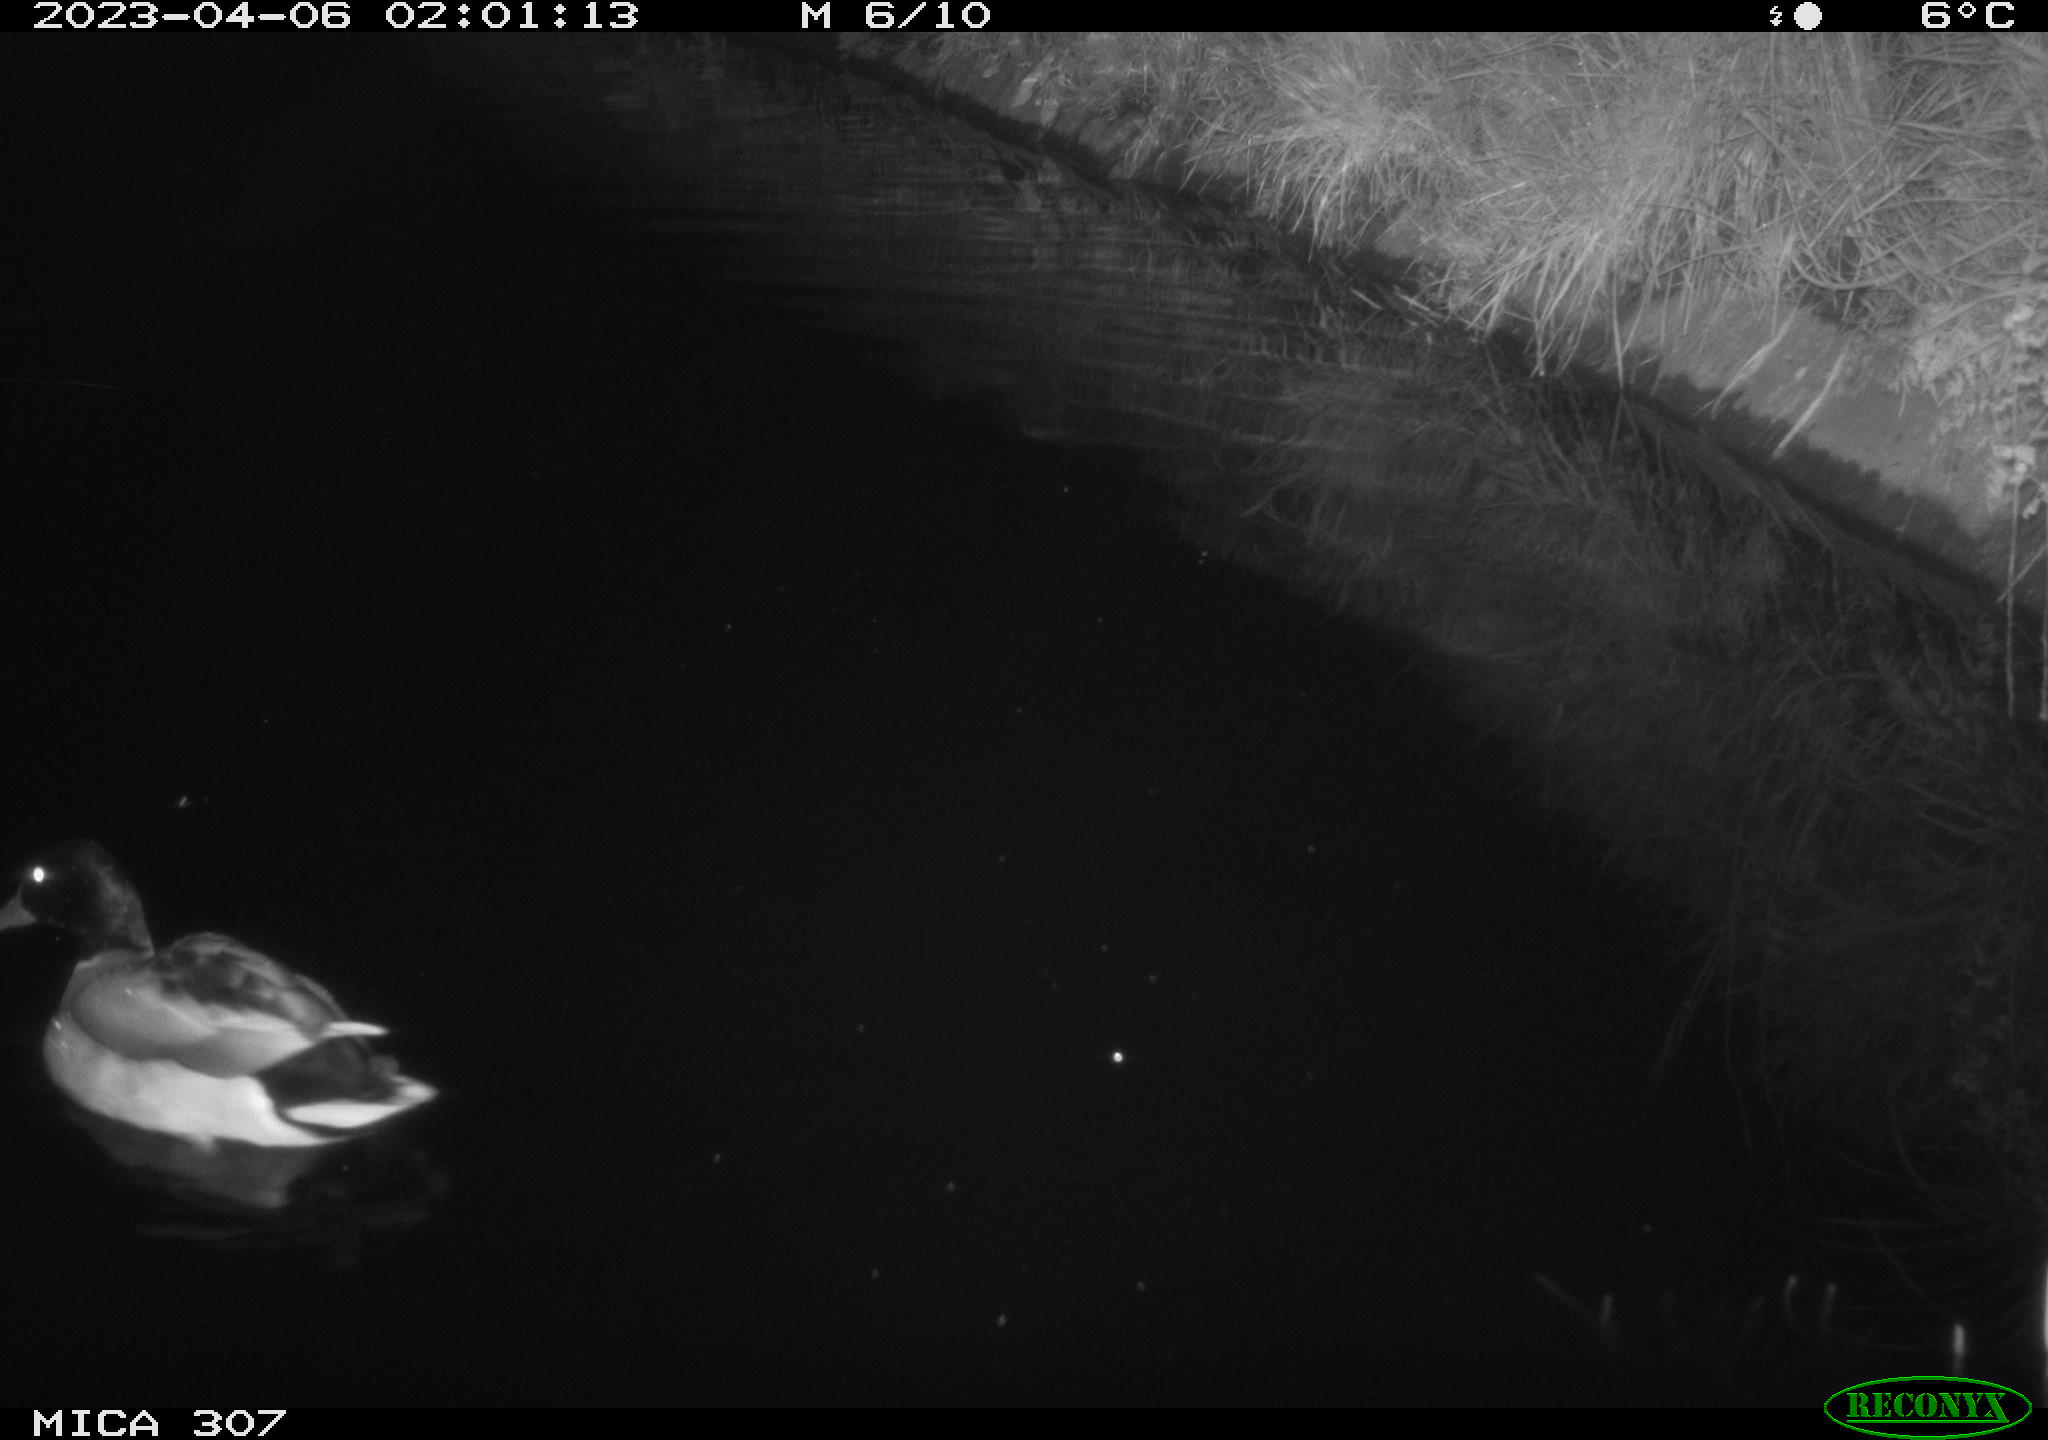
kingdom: Animalia
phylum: Chordata
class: Aves
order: Anseriformes
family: Anatidae
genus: Anas
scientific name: Anas
